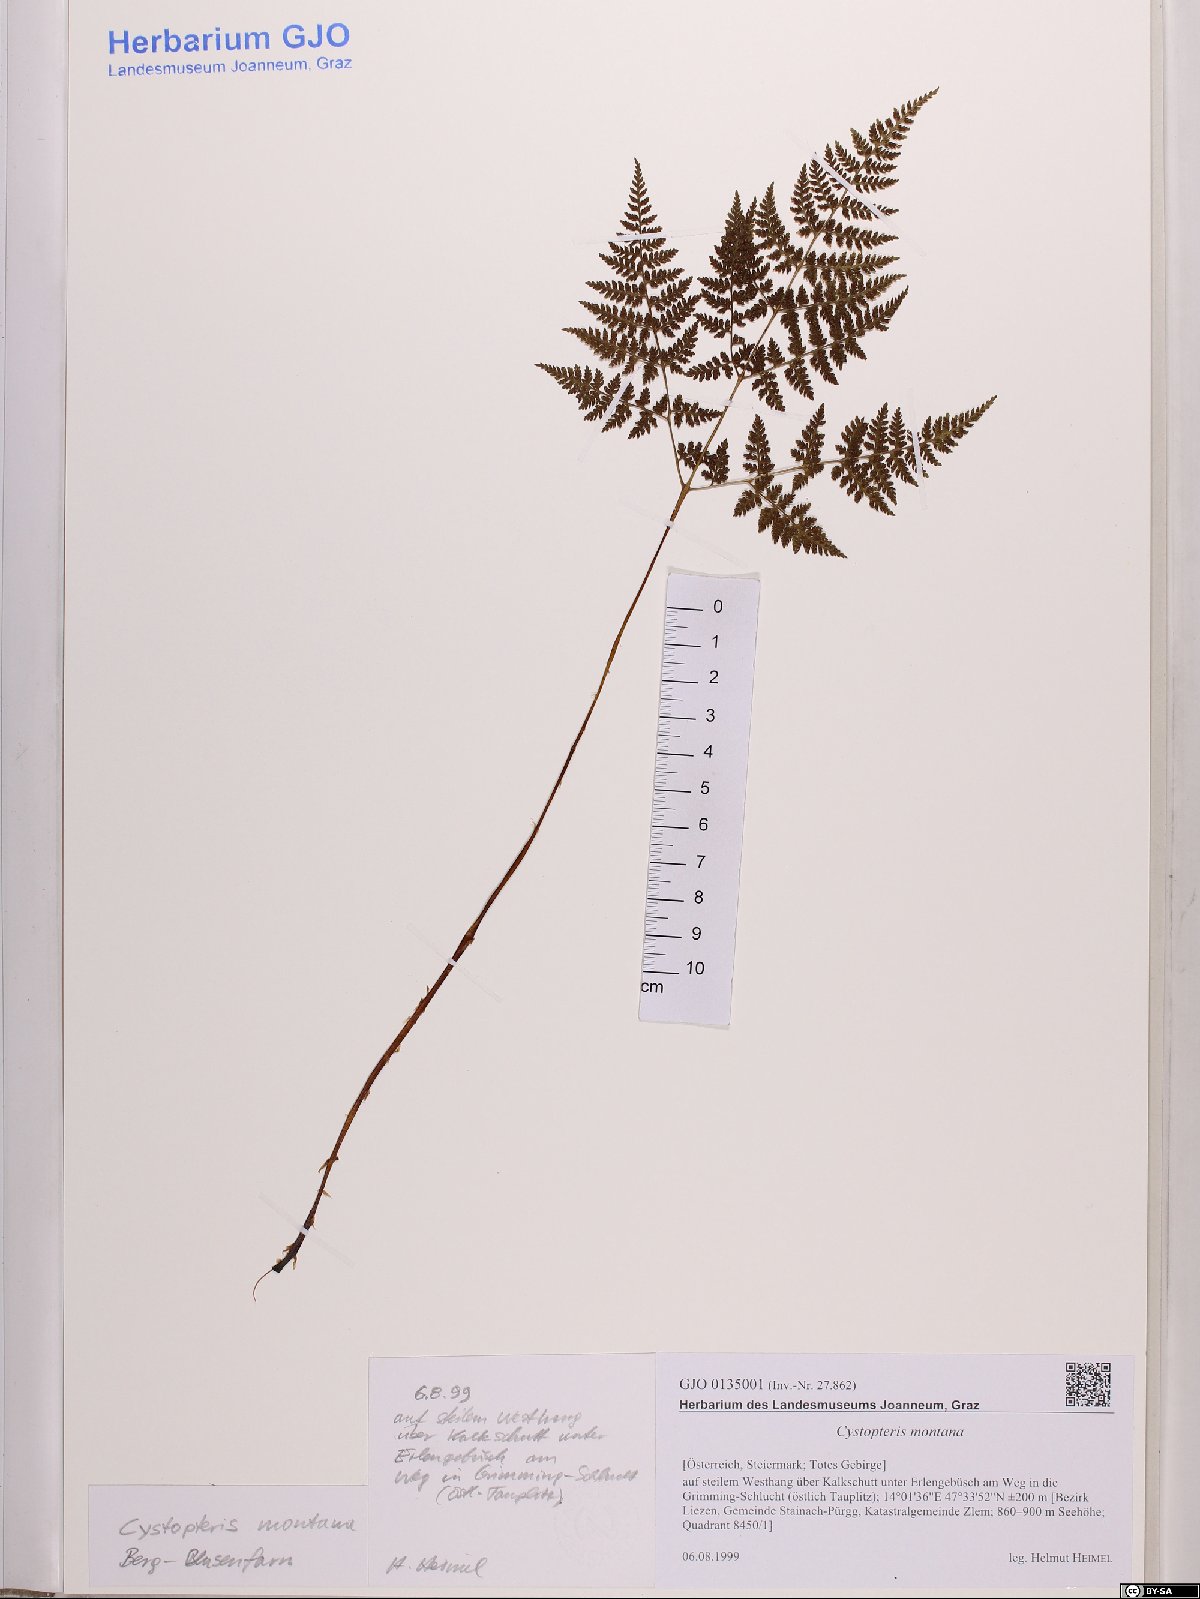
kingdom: Plantae
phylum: Tracheophyta
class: Polypodiopsida
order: Polypodiales
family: Cystopteridaceae
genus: Cystopteris
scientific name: Cystopteris montana
